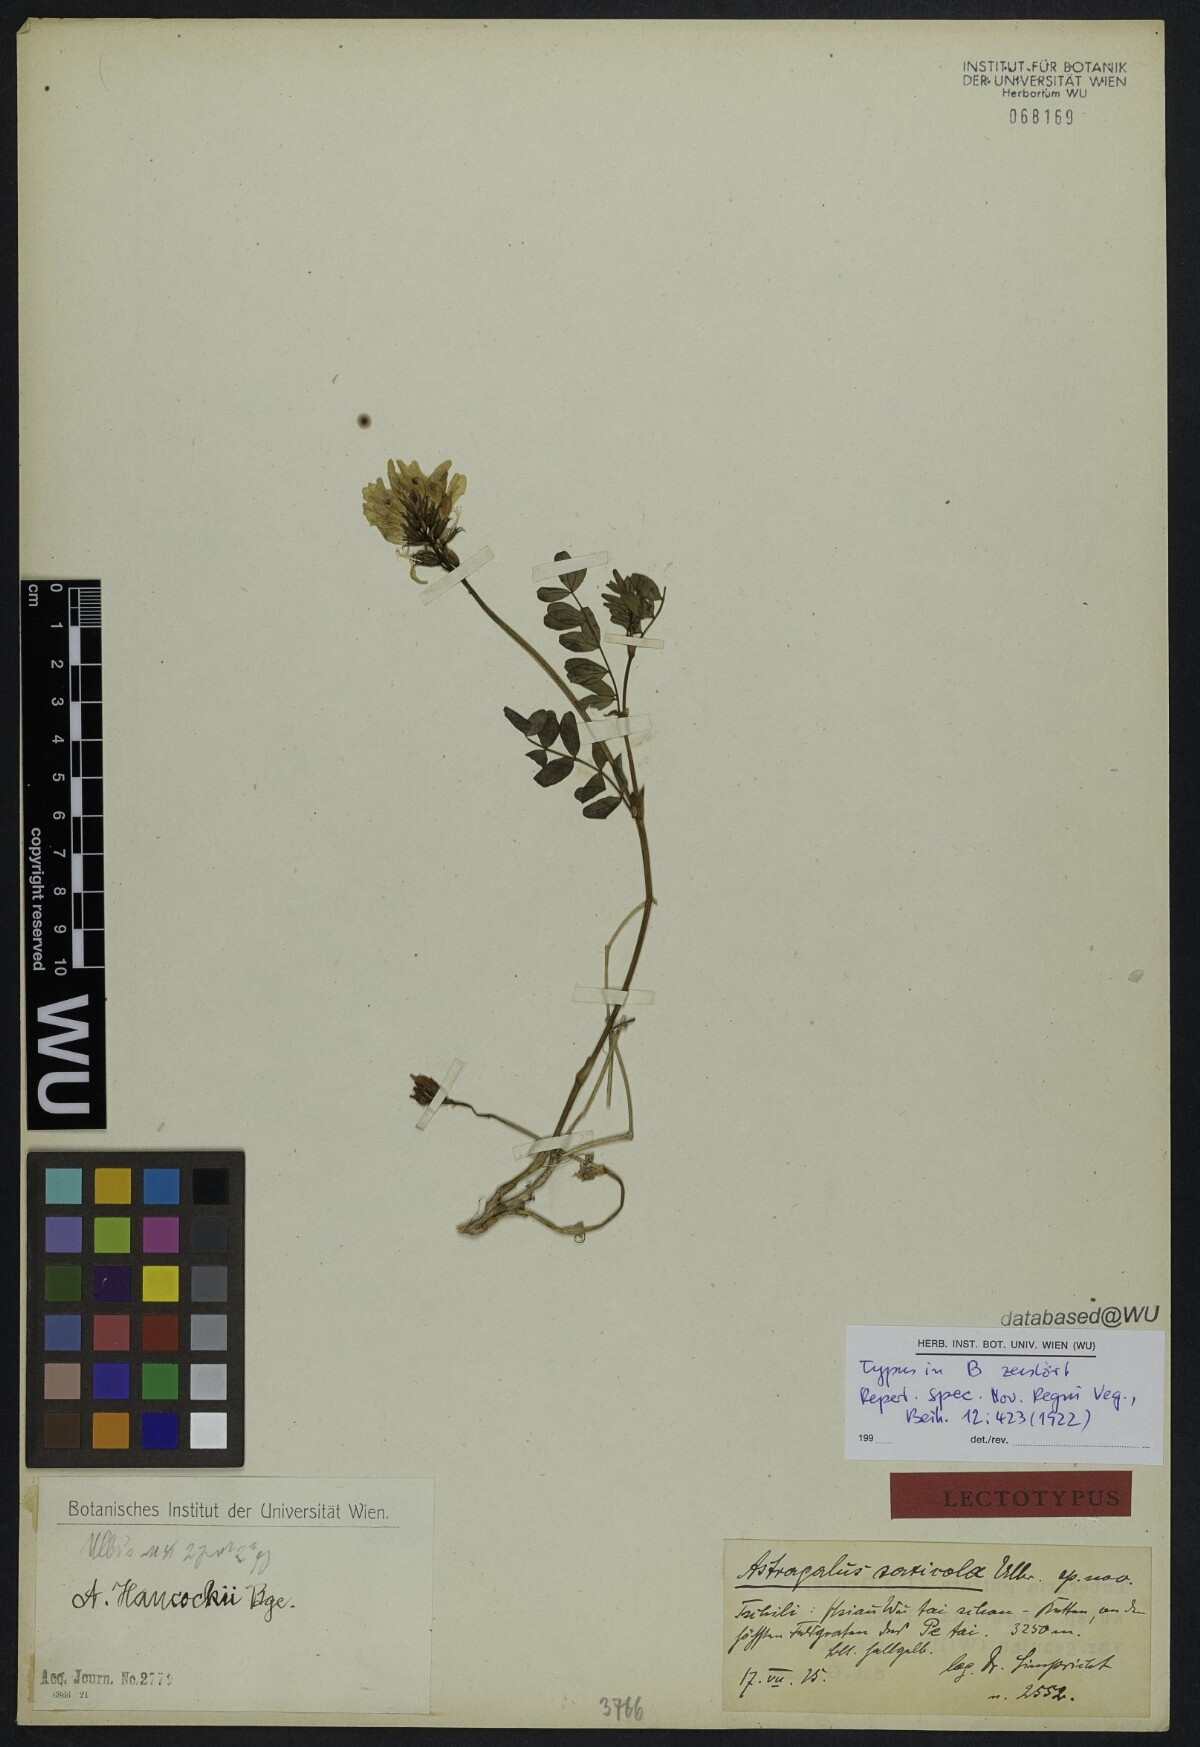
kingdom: Plantae
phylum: Tracheophyta
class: Magnoliopsida
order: Fabales
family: Fabaceae
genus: Astragalus
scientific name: Astragalus hancockii
